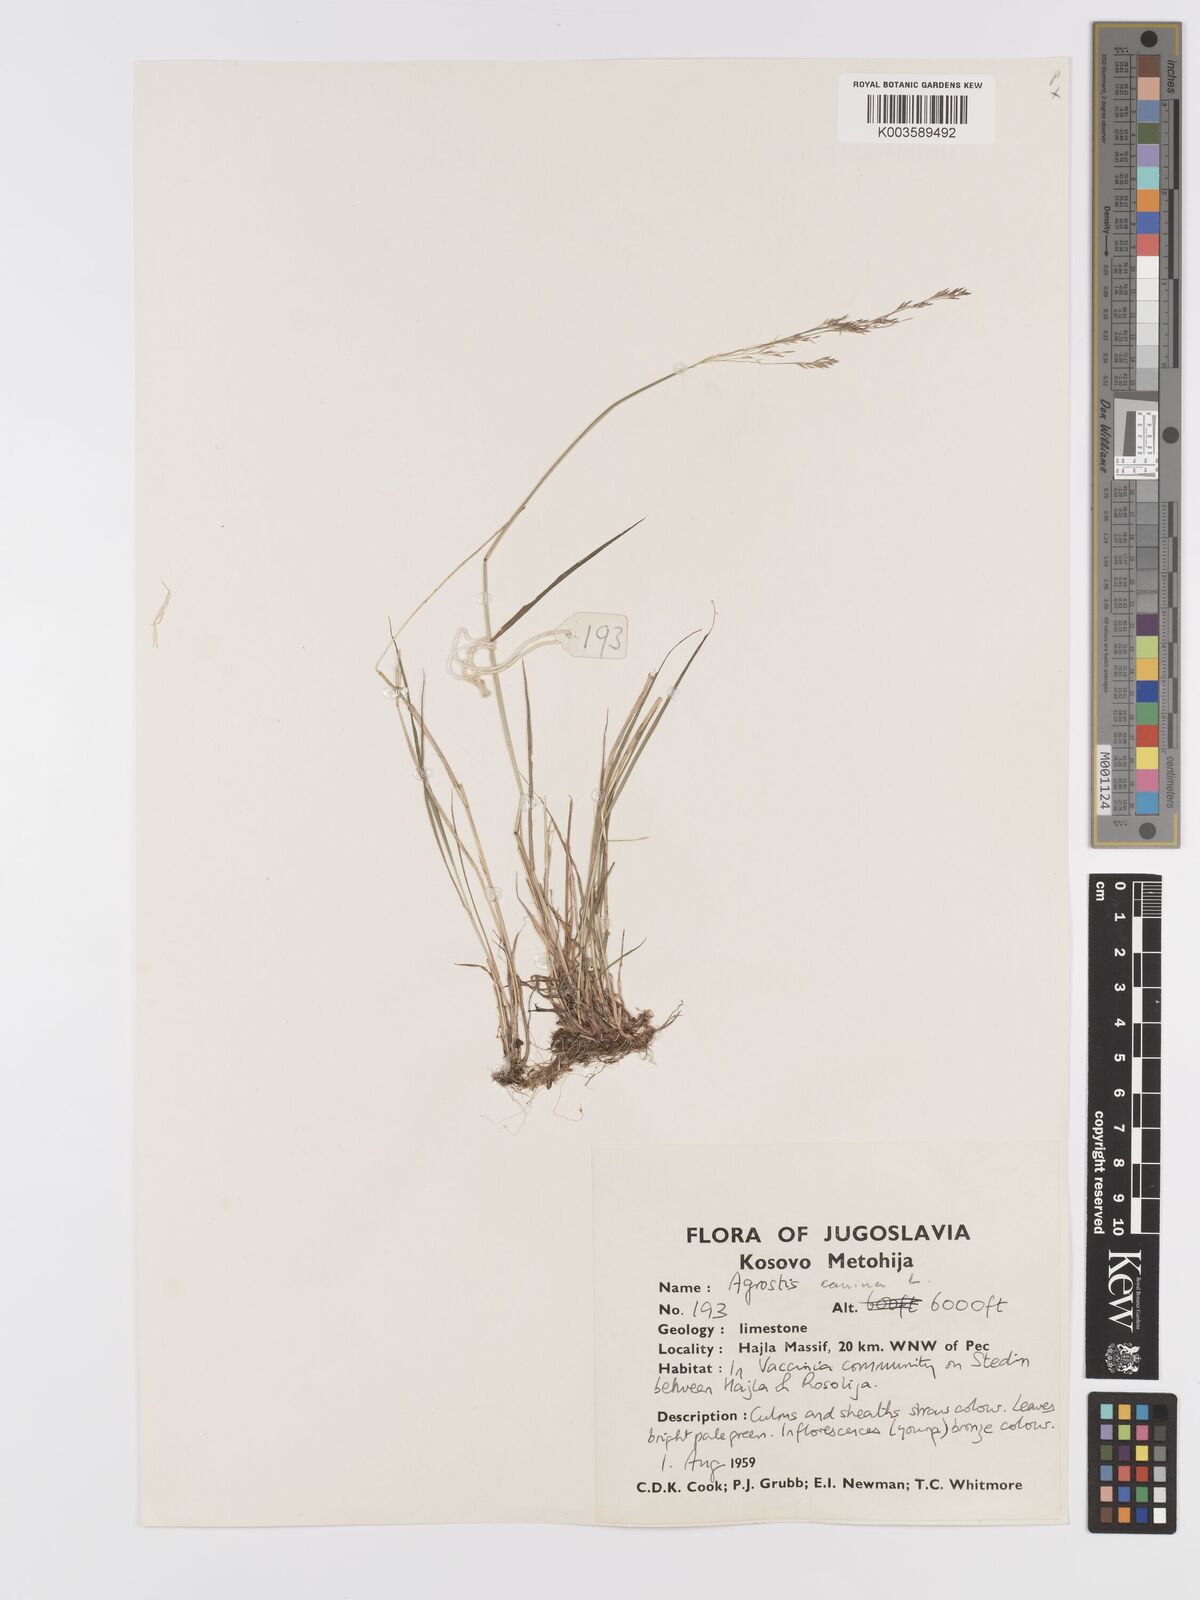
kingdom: Plantae
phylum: Tracheophyta
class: Liliopsida
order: Poales
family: Poaceae
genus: Agrostis
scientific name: Agrostis canina
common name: Velvet bent
